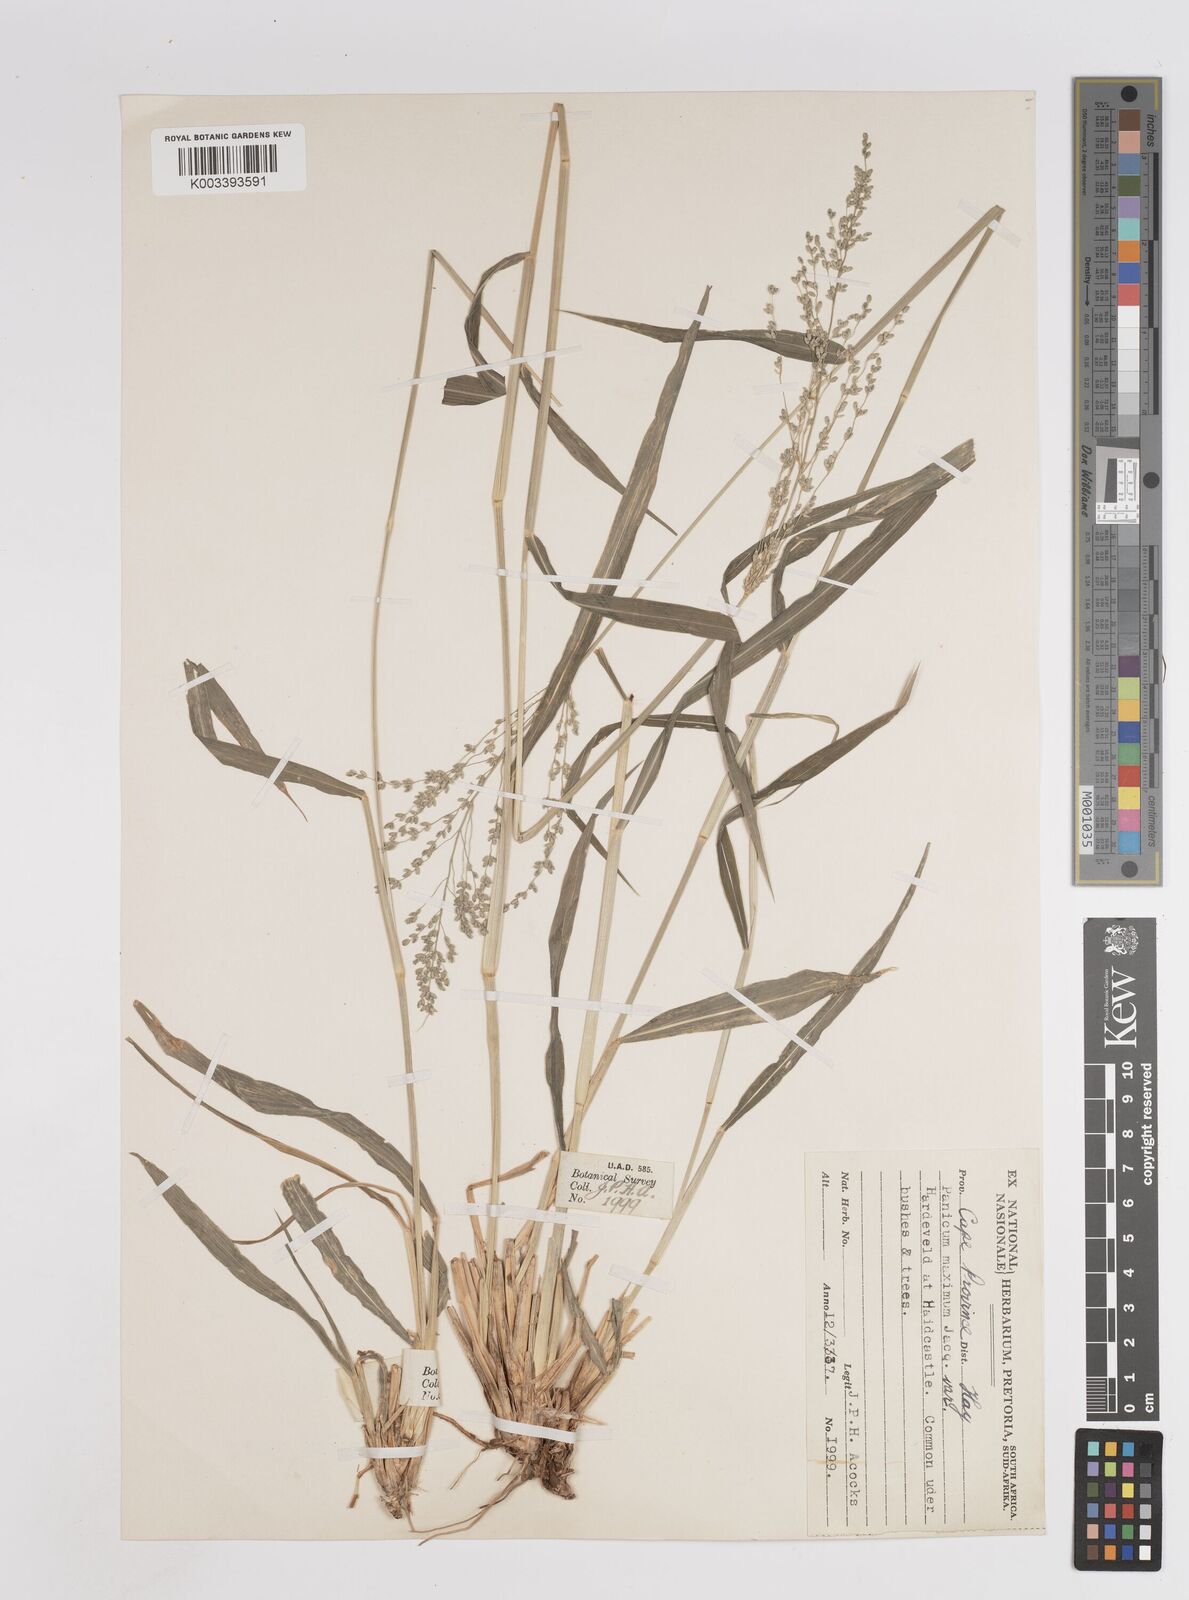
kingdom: Plantae
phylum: Tracheophyta
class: Liliopsida
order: Poales
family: Poaceae
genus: Megathyrsus
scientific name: Megathyrsus maximus
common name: Guineagrass
